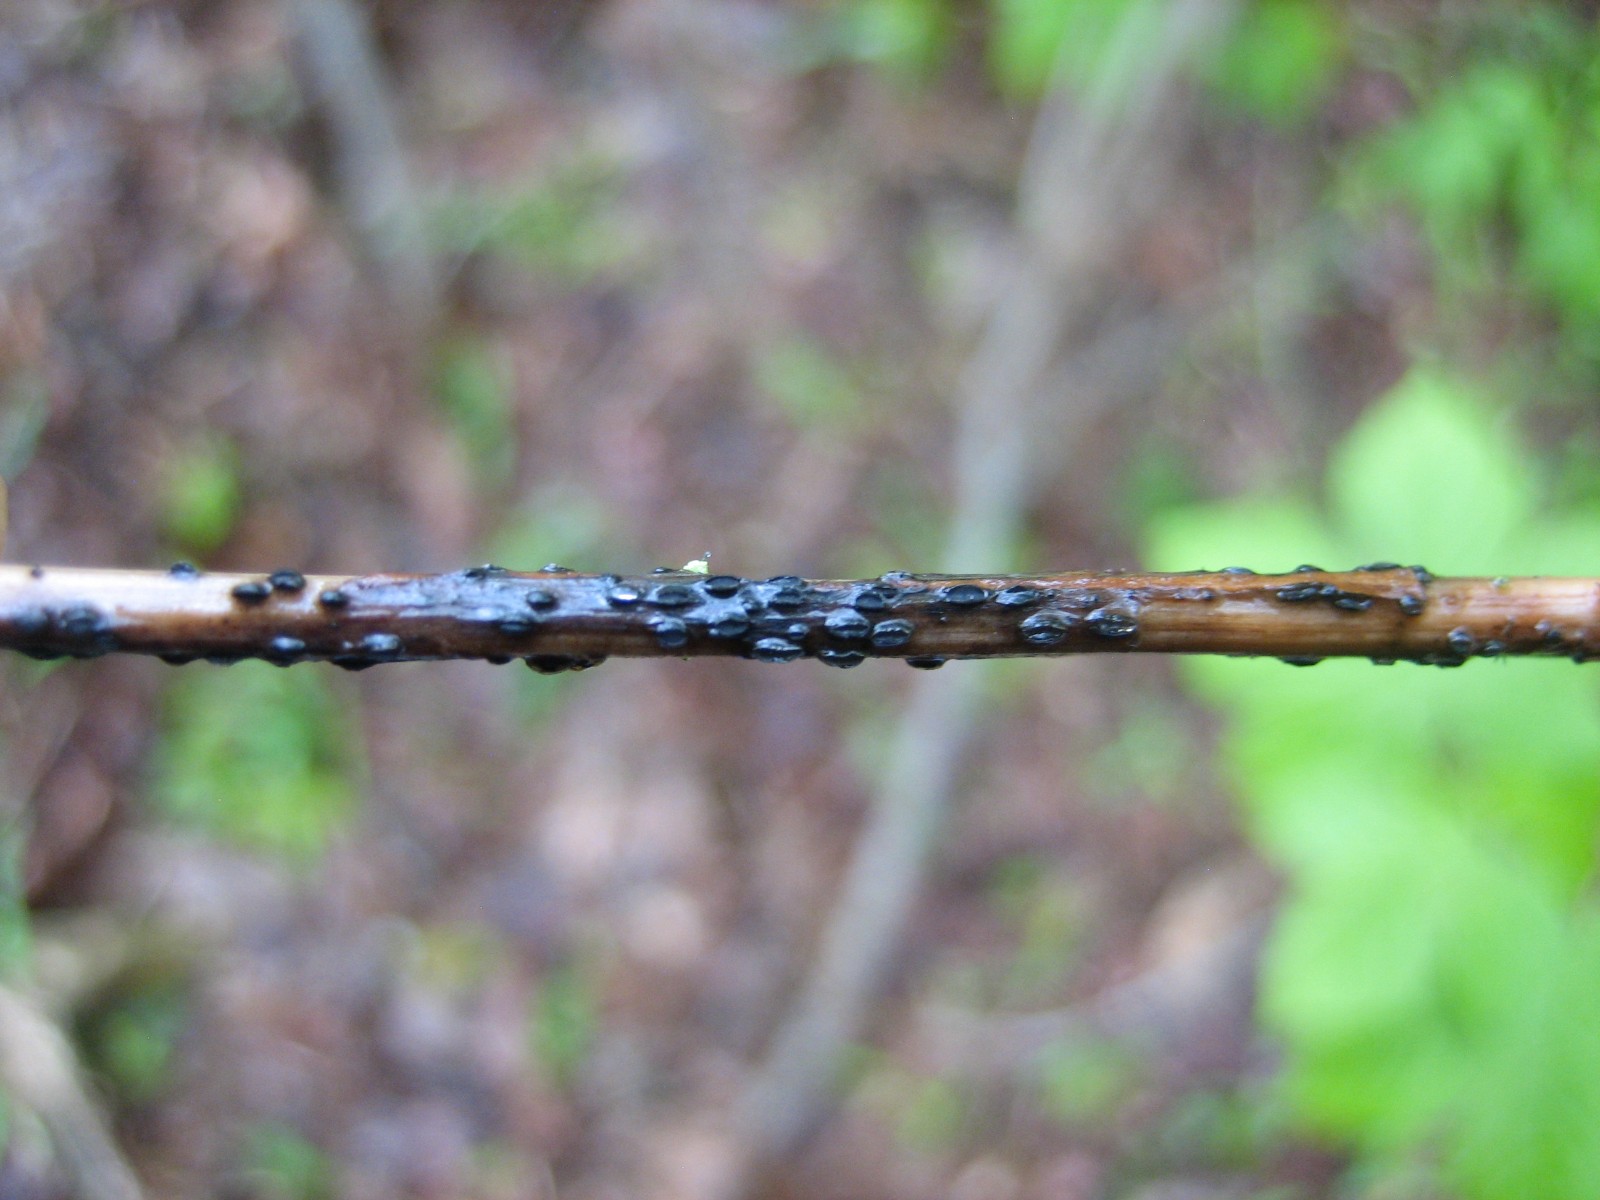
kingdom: Fungi
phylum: Ascomycota
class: Leotiomycetes
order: Helotiales
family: Ploettnerulaceae
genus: Pyrenopeziza
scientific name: Pyrenopeziza petiolaris
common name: ahorn-kerneskive
